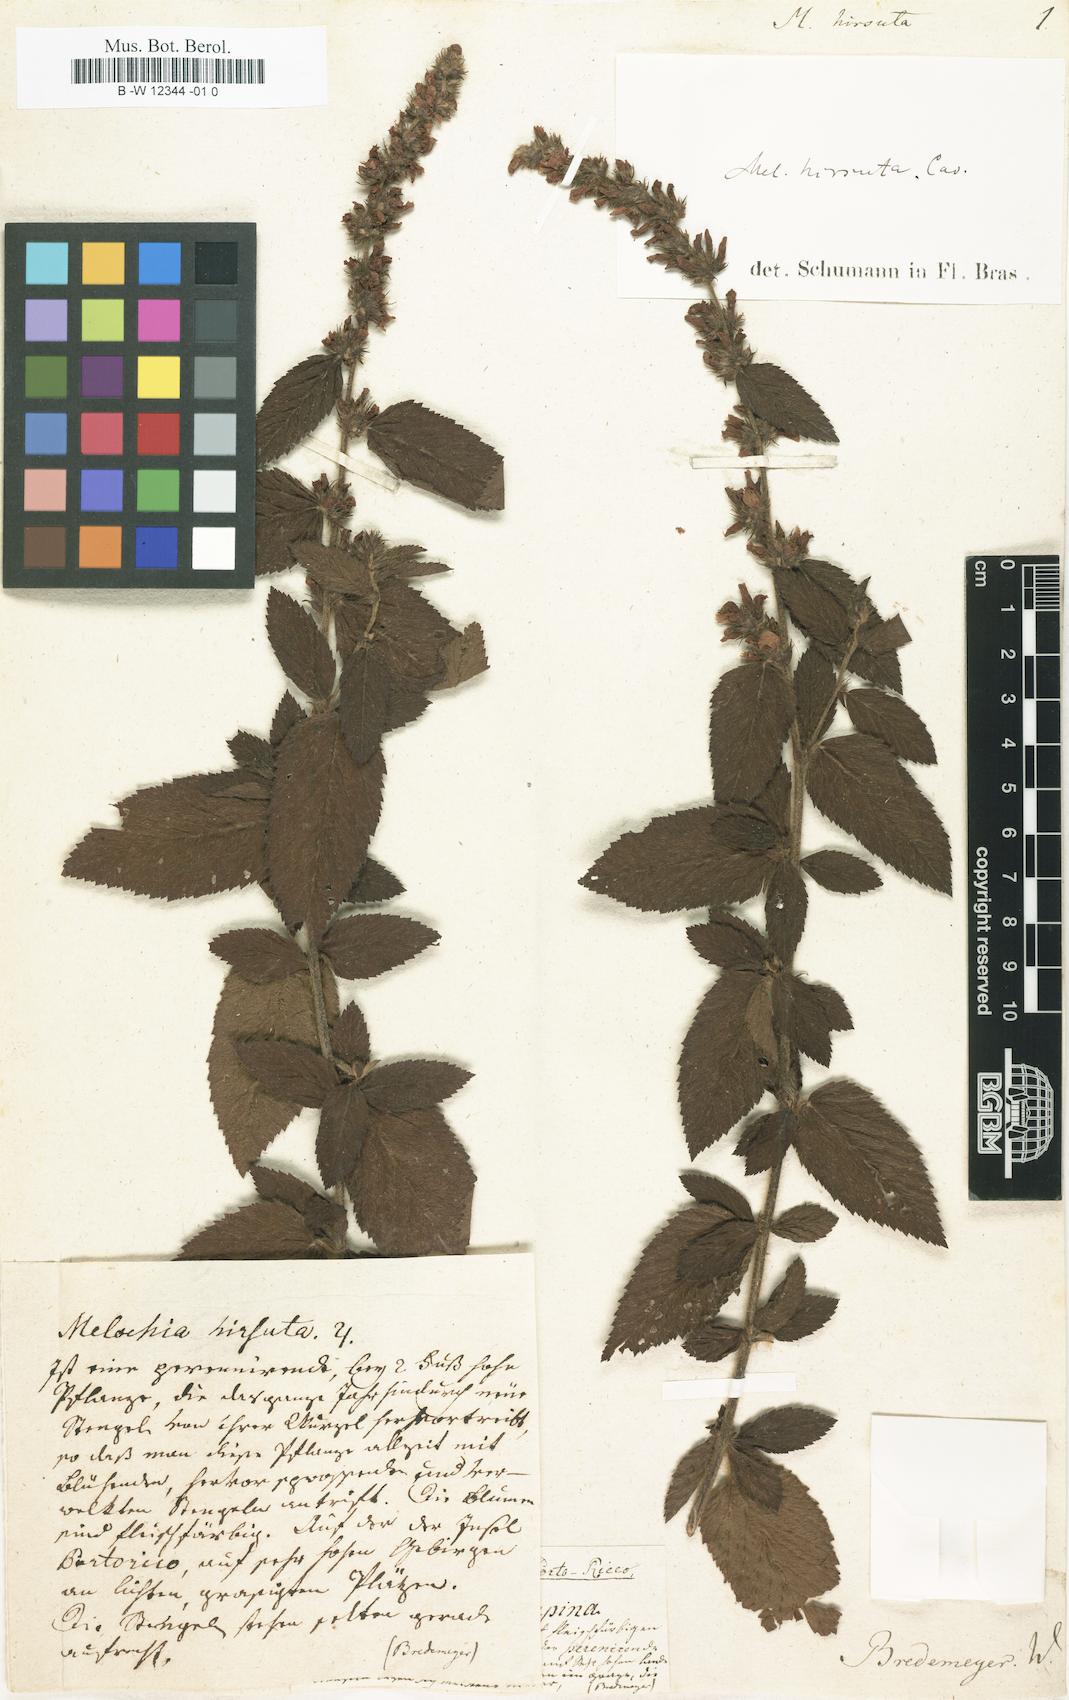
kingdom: Plantae
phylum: Tracheophyta
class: Magnoliopsida
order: Malvales
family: Malvaceae
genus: Melochia
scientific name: Melochia spicata
